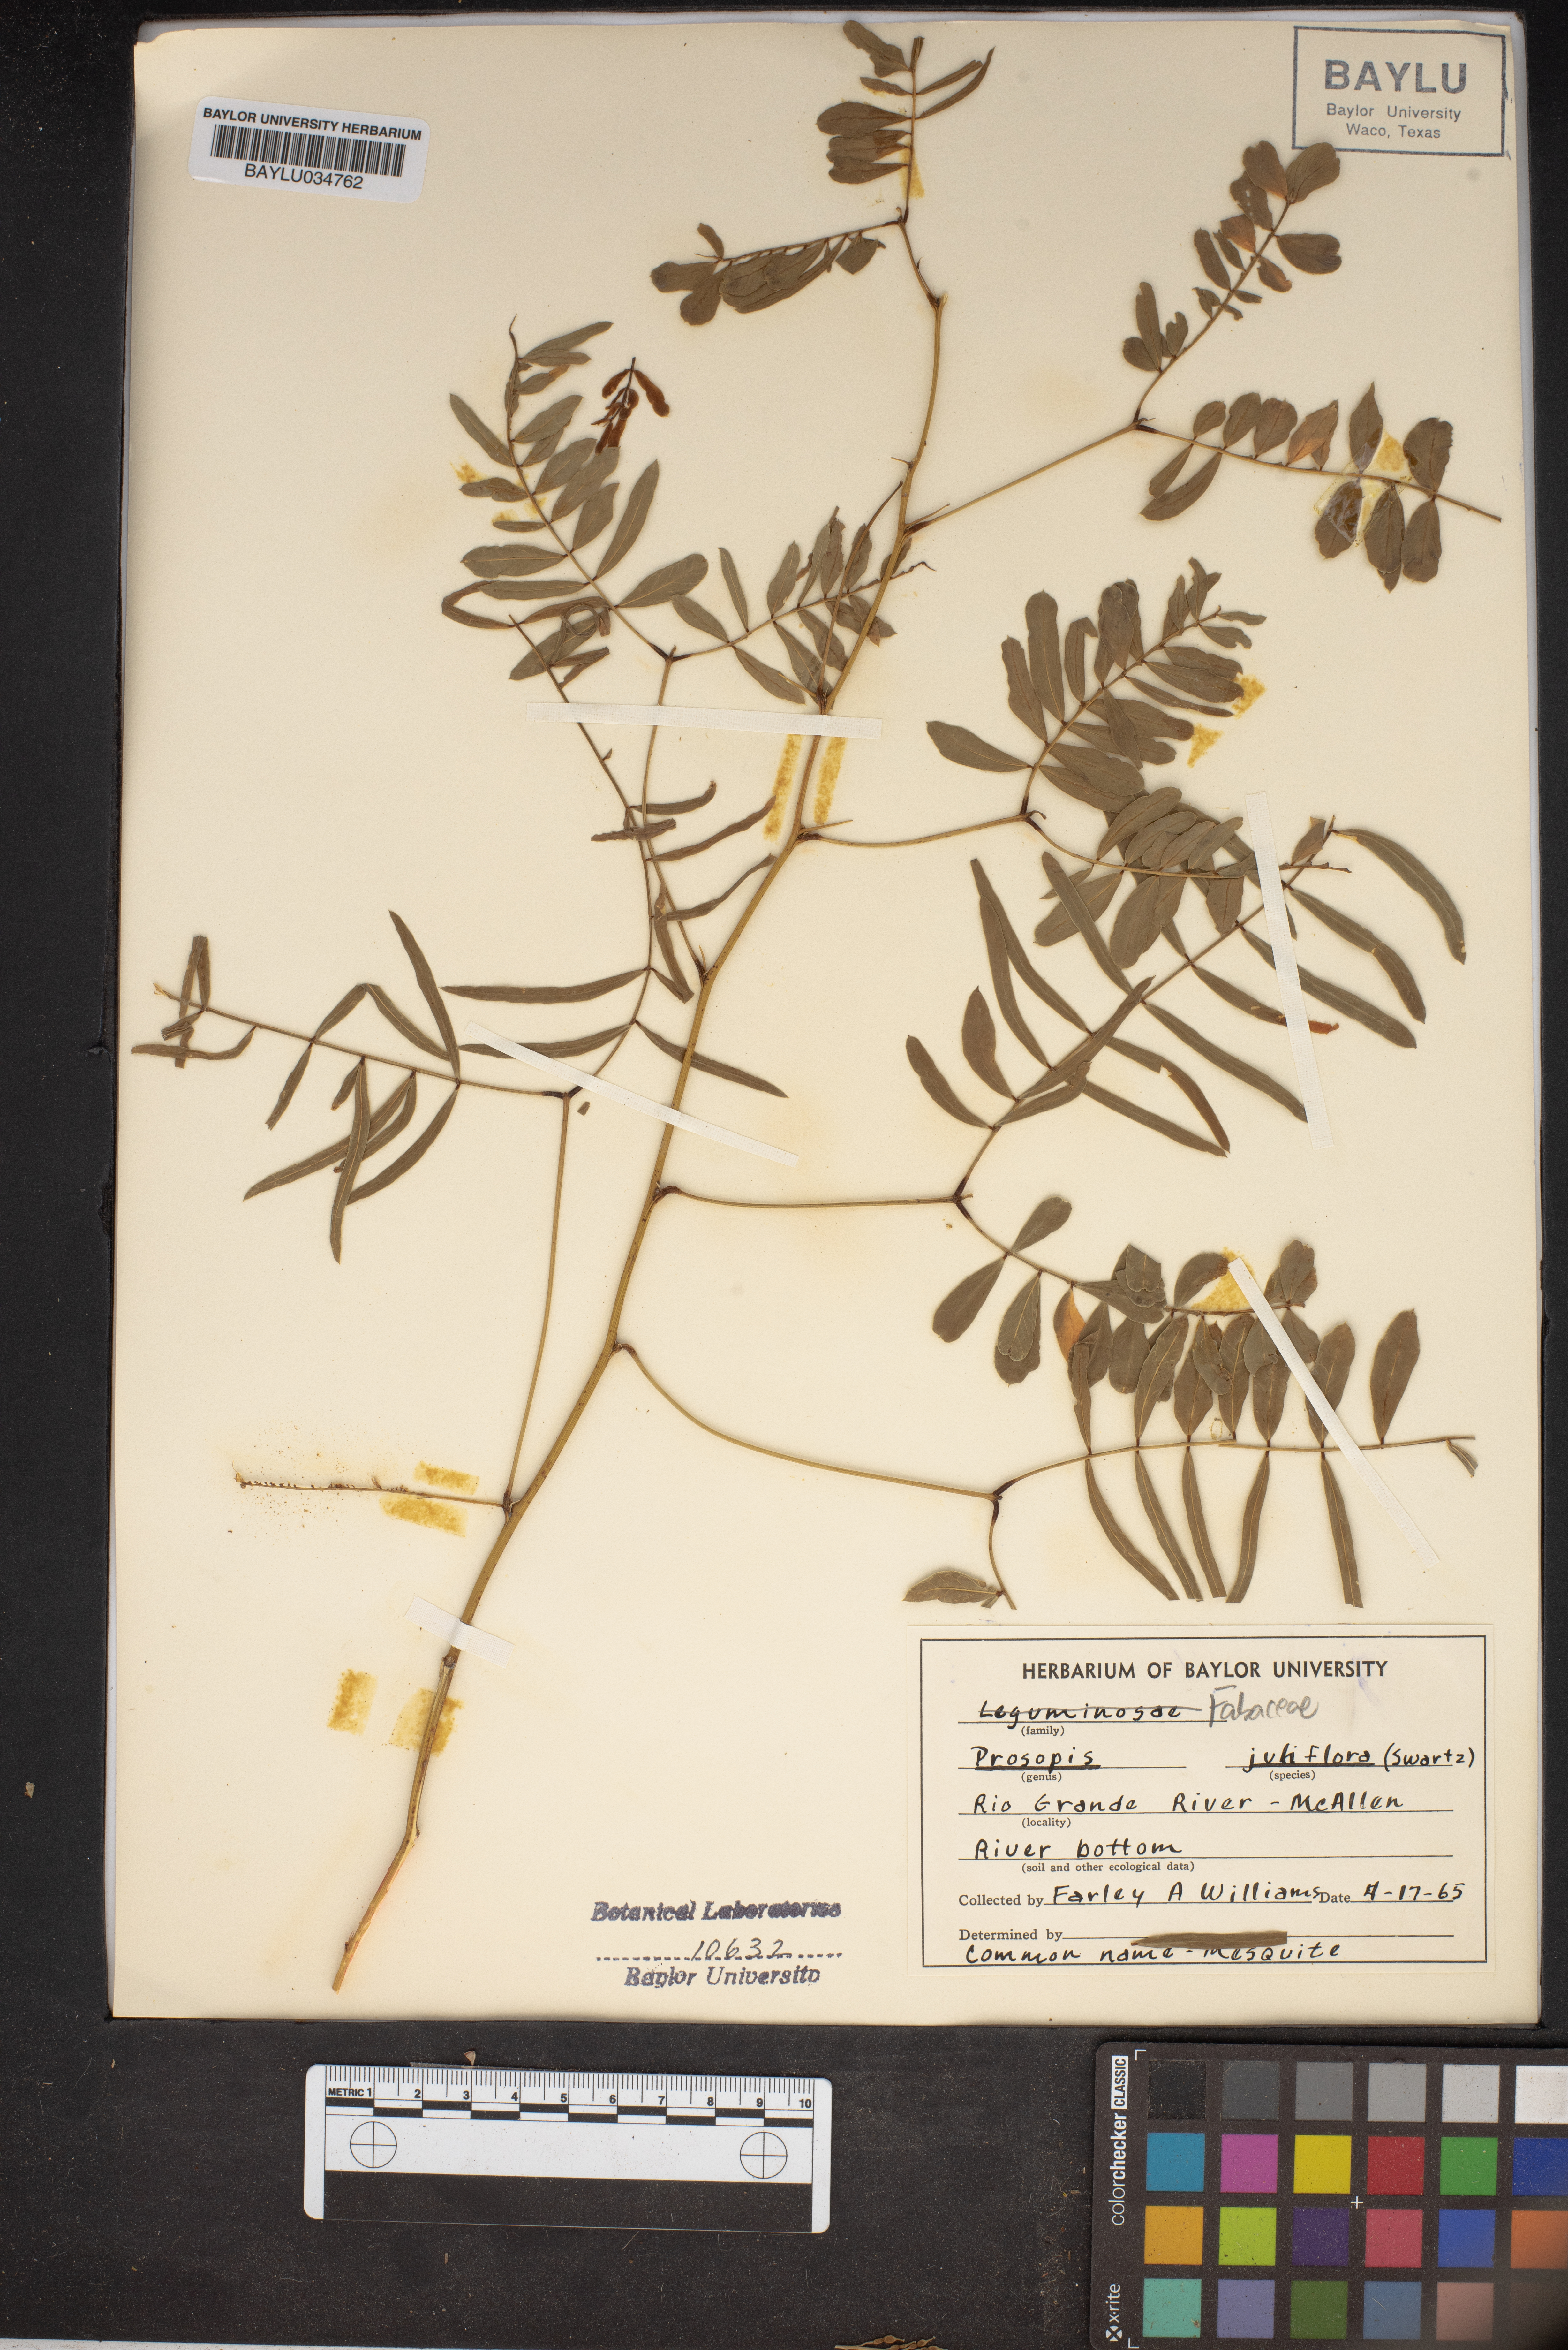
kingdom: Plantae
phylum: Tracheophyta
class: Magnoliopsida
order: Fabales
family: Fabaceae
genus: Prosopis
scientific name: Prosopis juliflora
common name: Mesquite
